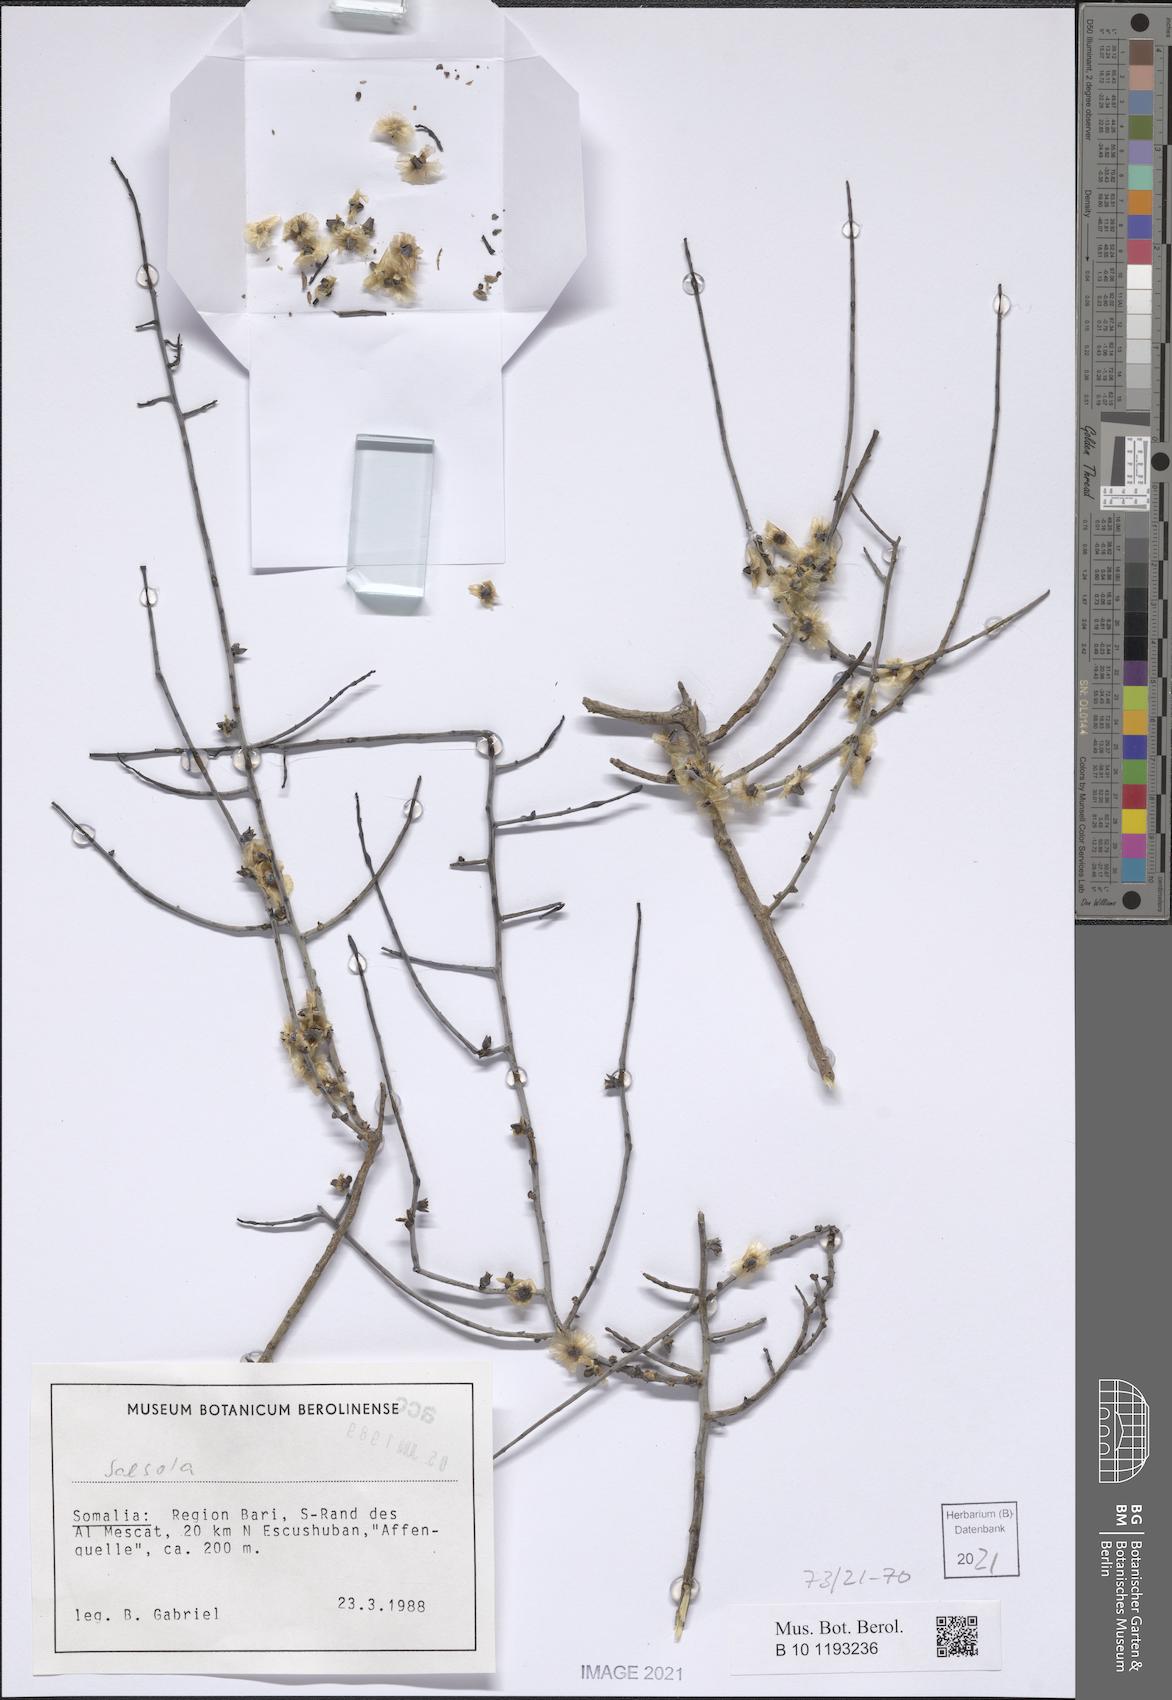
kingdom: Plantae
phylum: Tracheophyta
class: Magnoliopsida
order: Caryophyllales
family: Amaranthaceae
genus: Salsola
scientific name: Salsola
